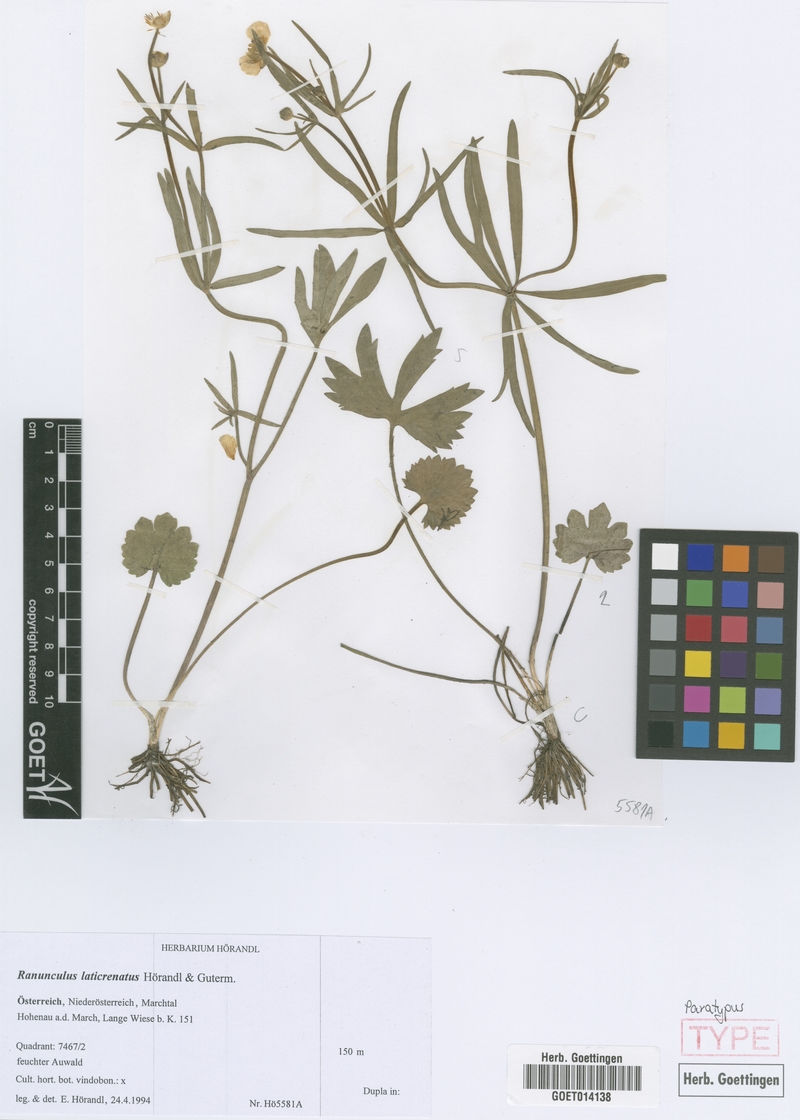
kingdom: Plantae
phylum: Tracheophyta
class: Magnoliopsida
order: Ranunculales
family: Ranunculaceae
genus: Ranunculus
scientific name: Ranunculus laticrenatus
